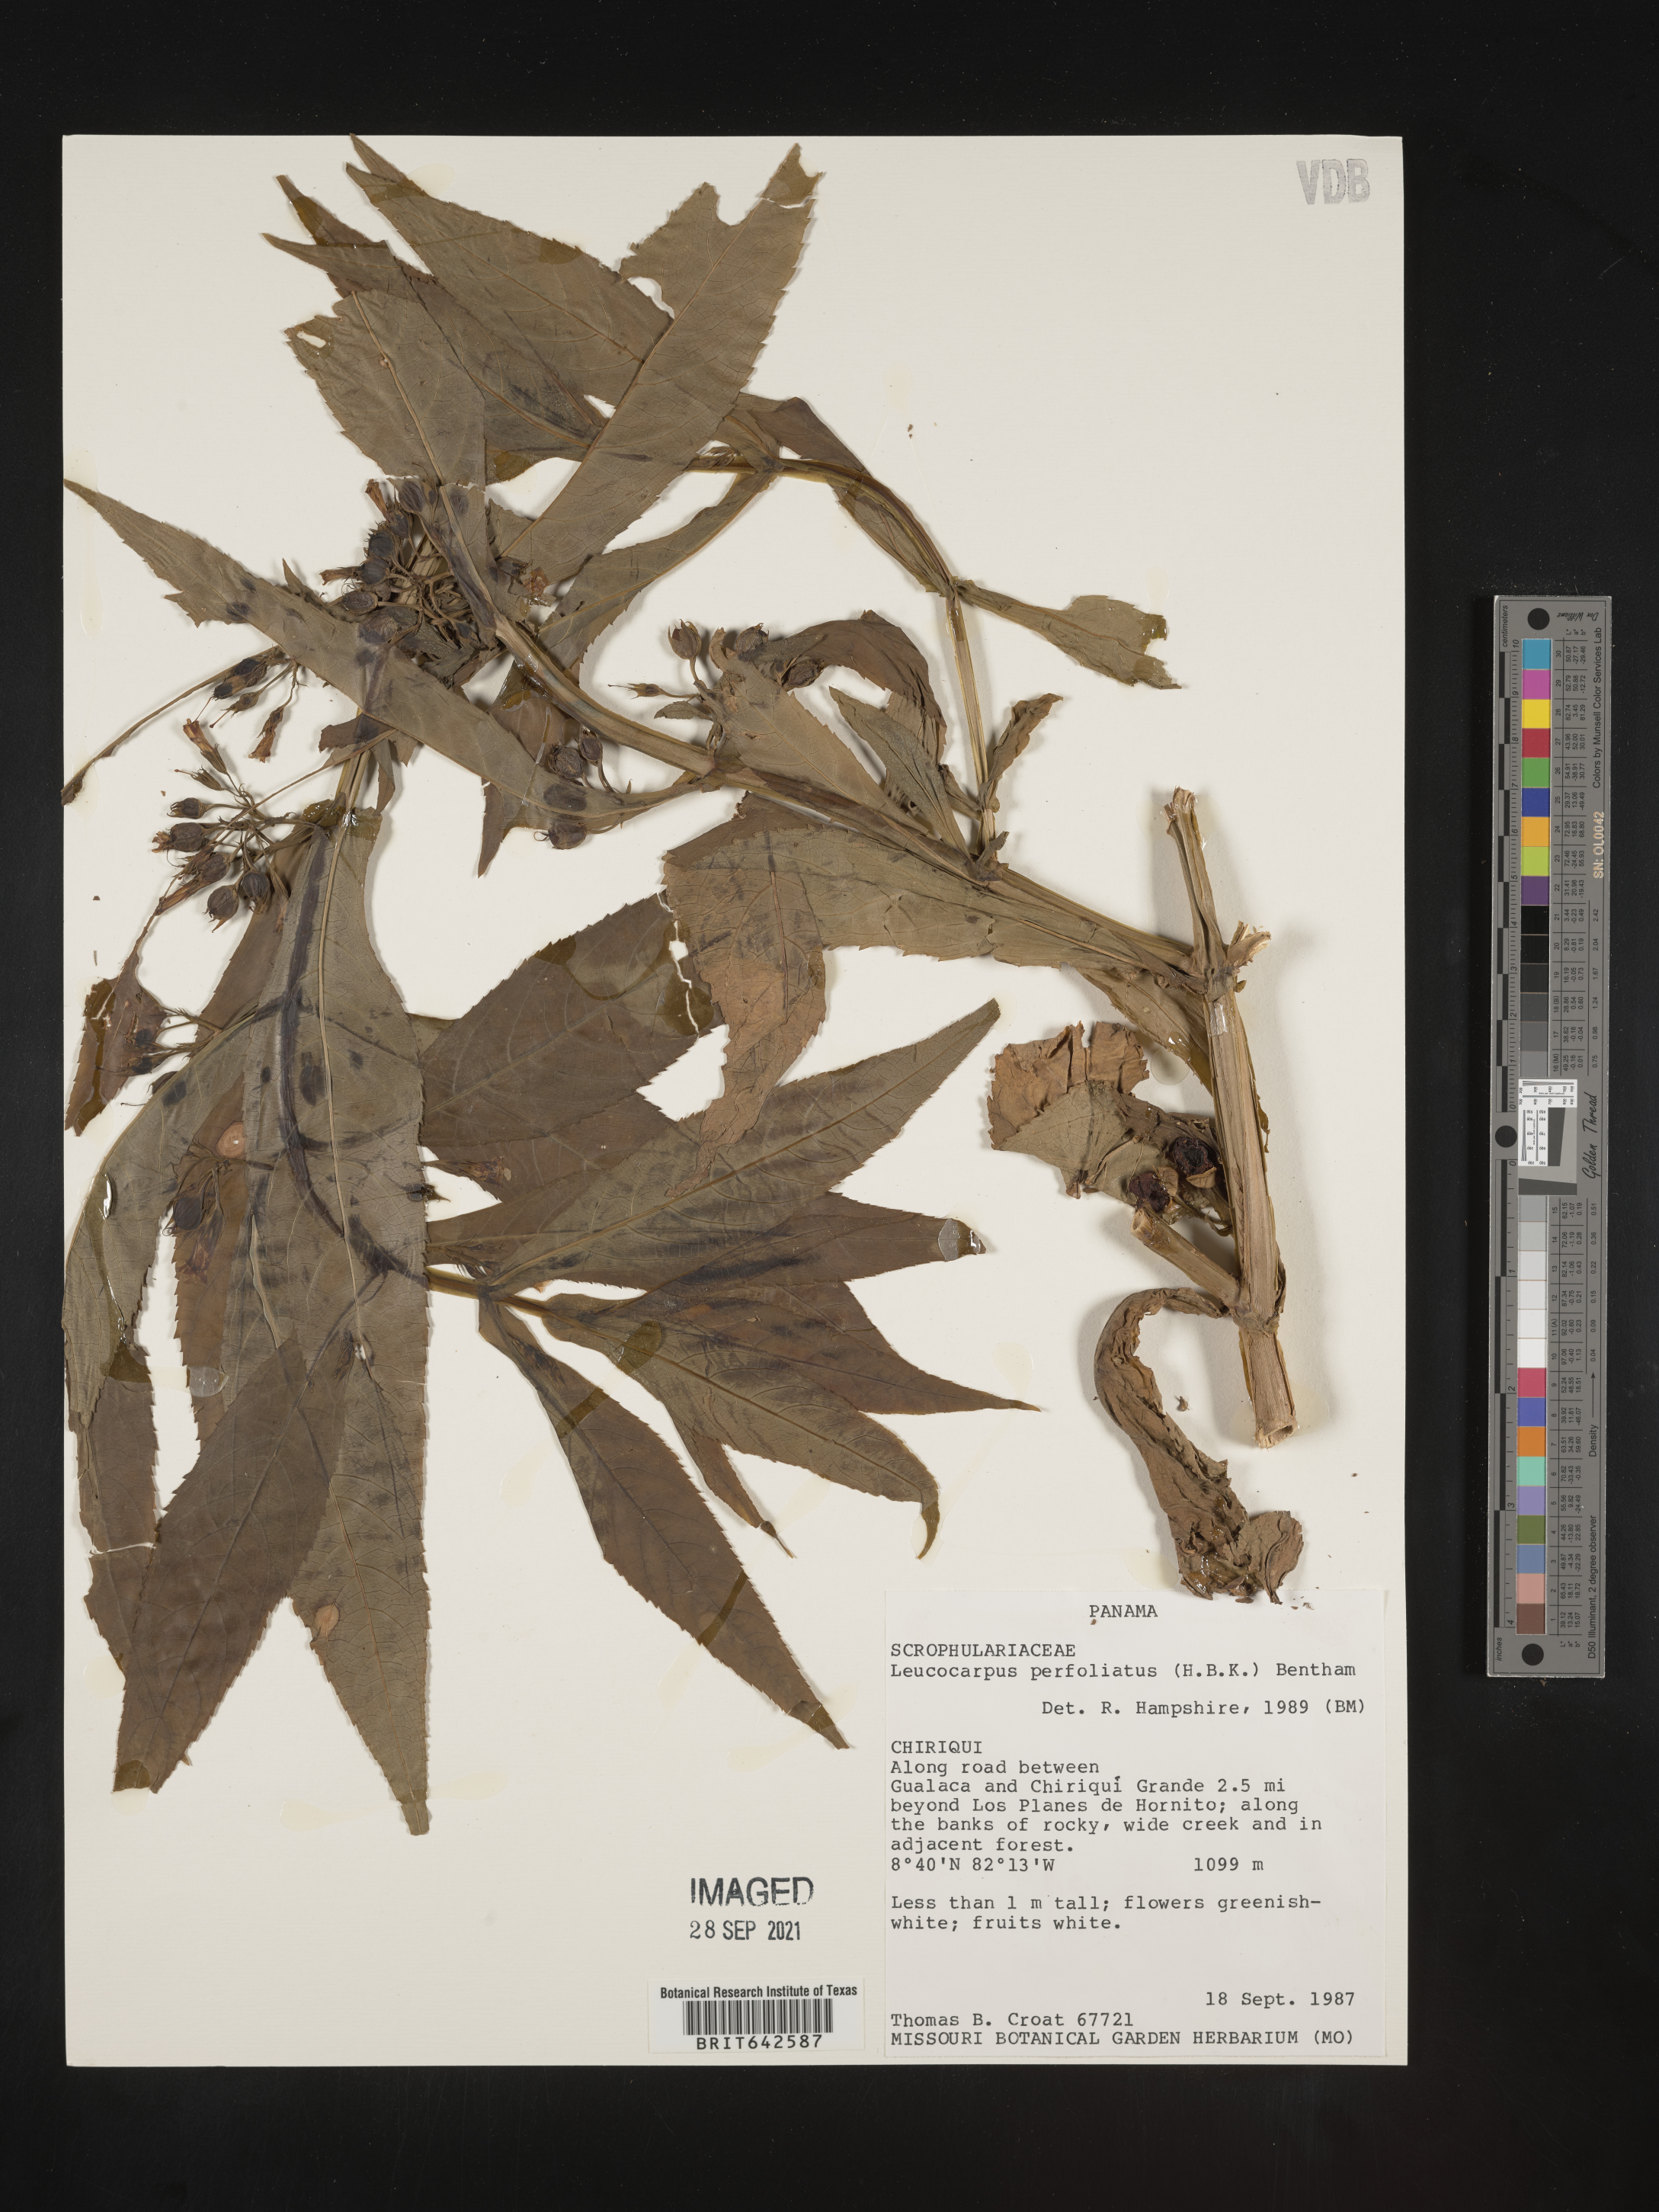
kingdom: Plantae
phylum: Tracheophyta
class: Magnoliopsida
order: Lamiales
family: Phrymaceae
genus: Leucocarpus
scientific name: Leucocarpus
